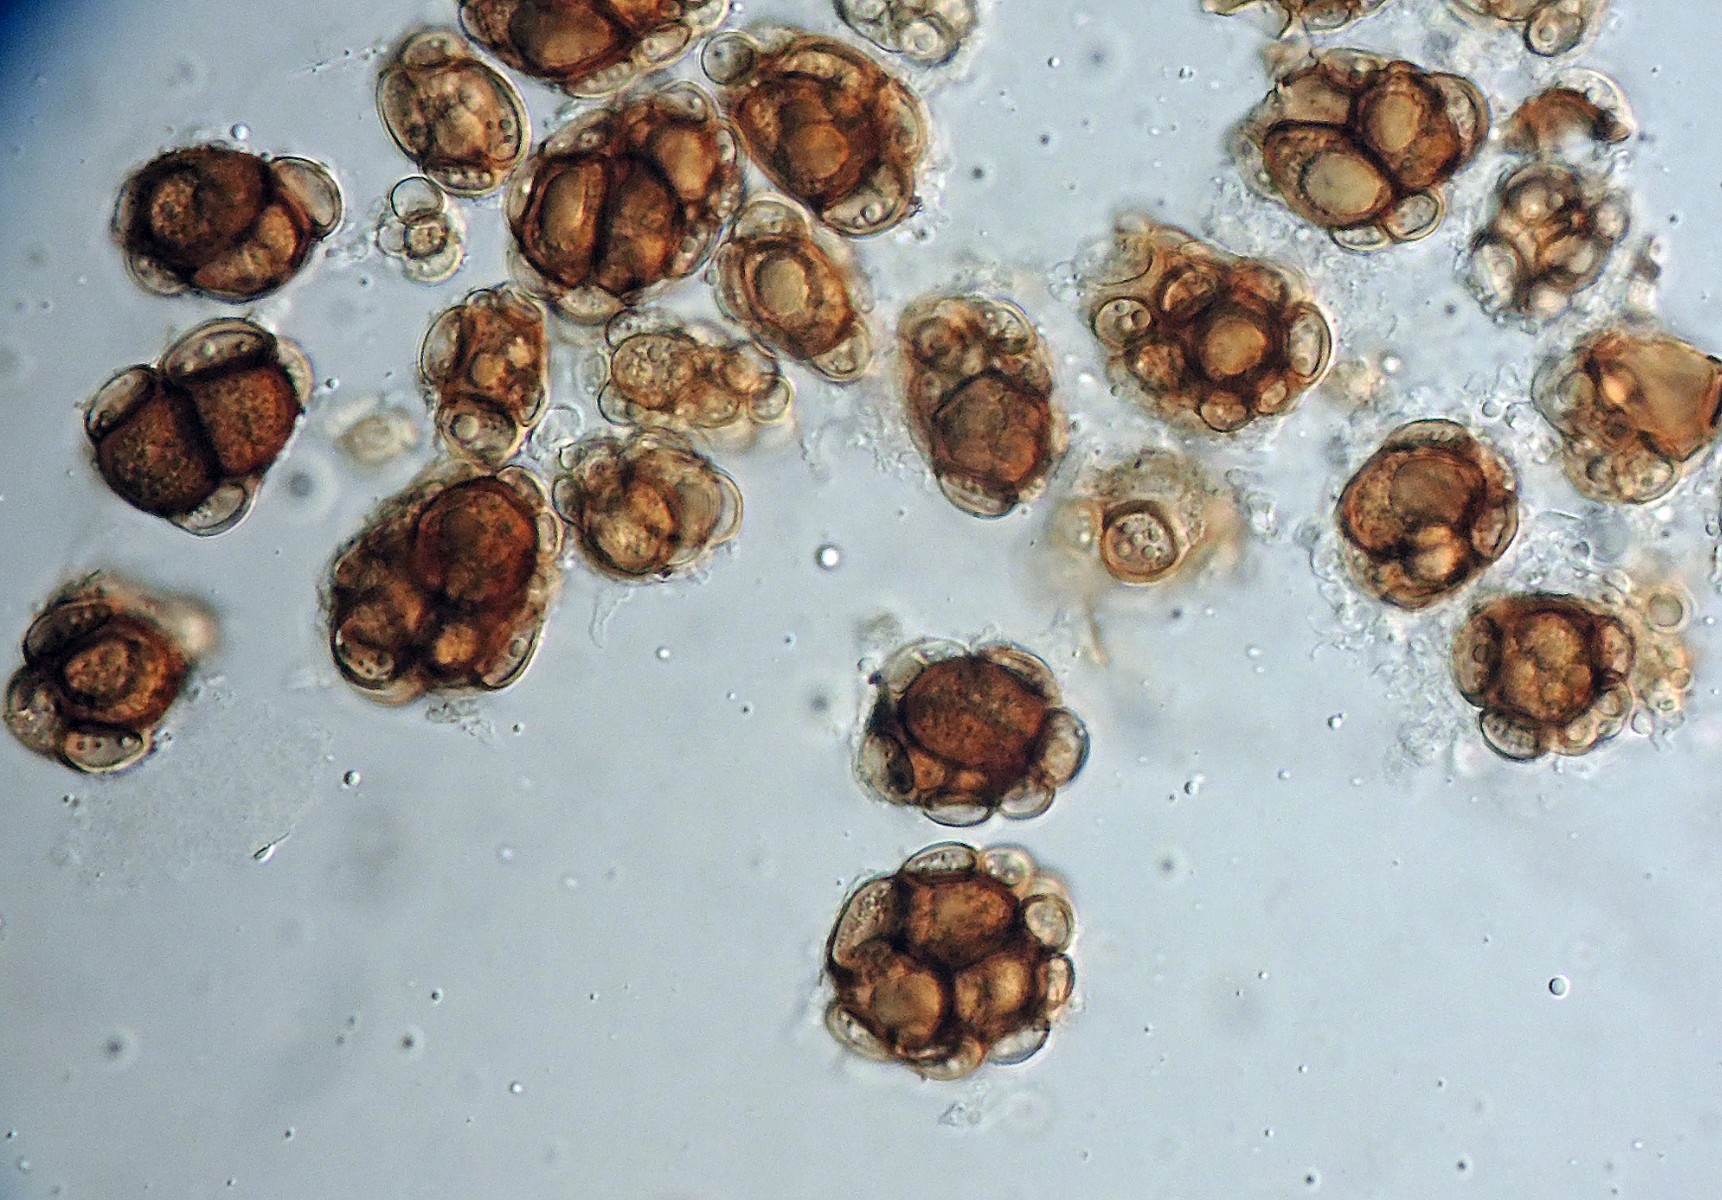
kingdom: Fungi
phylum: Basidiomycota
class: Ustilaginomycetes
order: Urocystidales
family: Urocystidaceae
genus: Urocystis
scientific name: Urocystis pulsatillae
